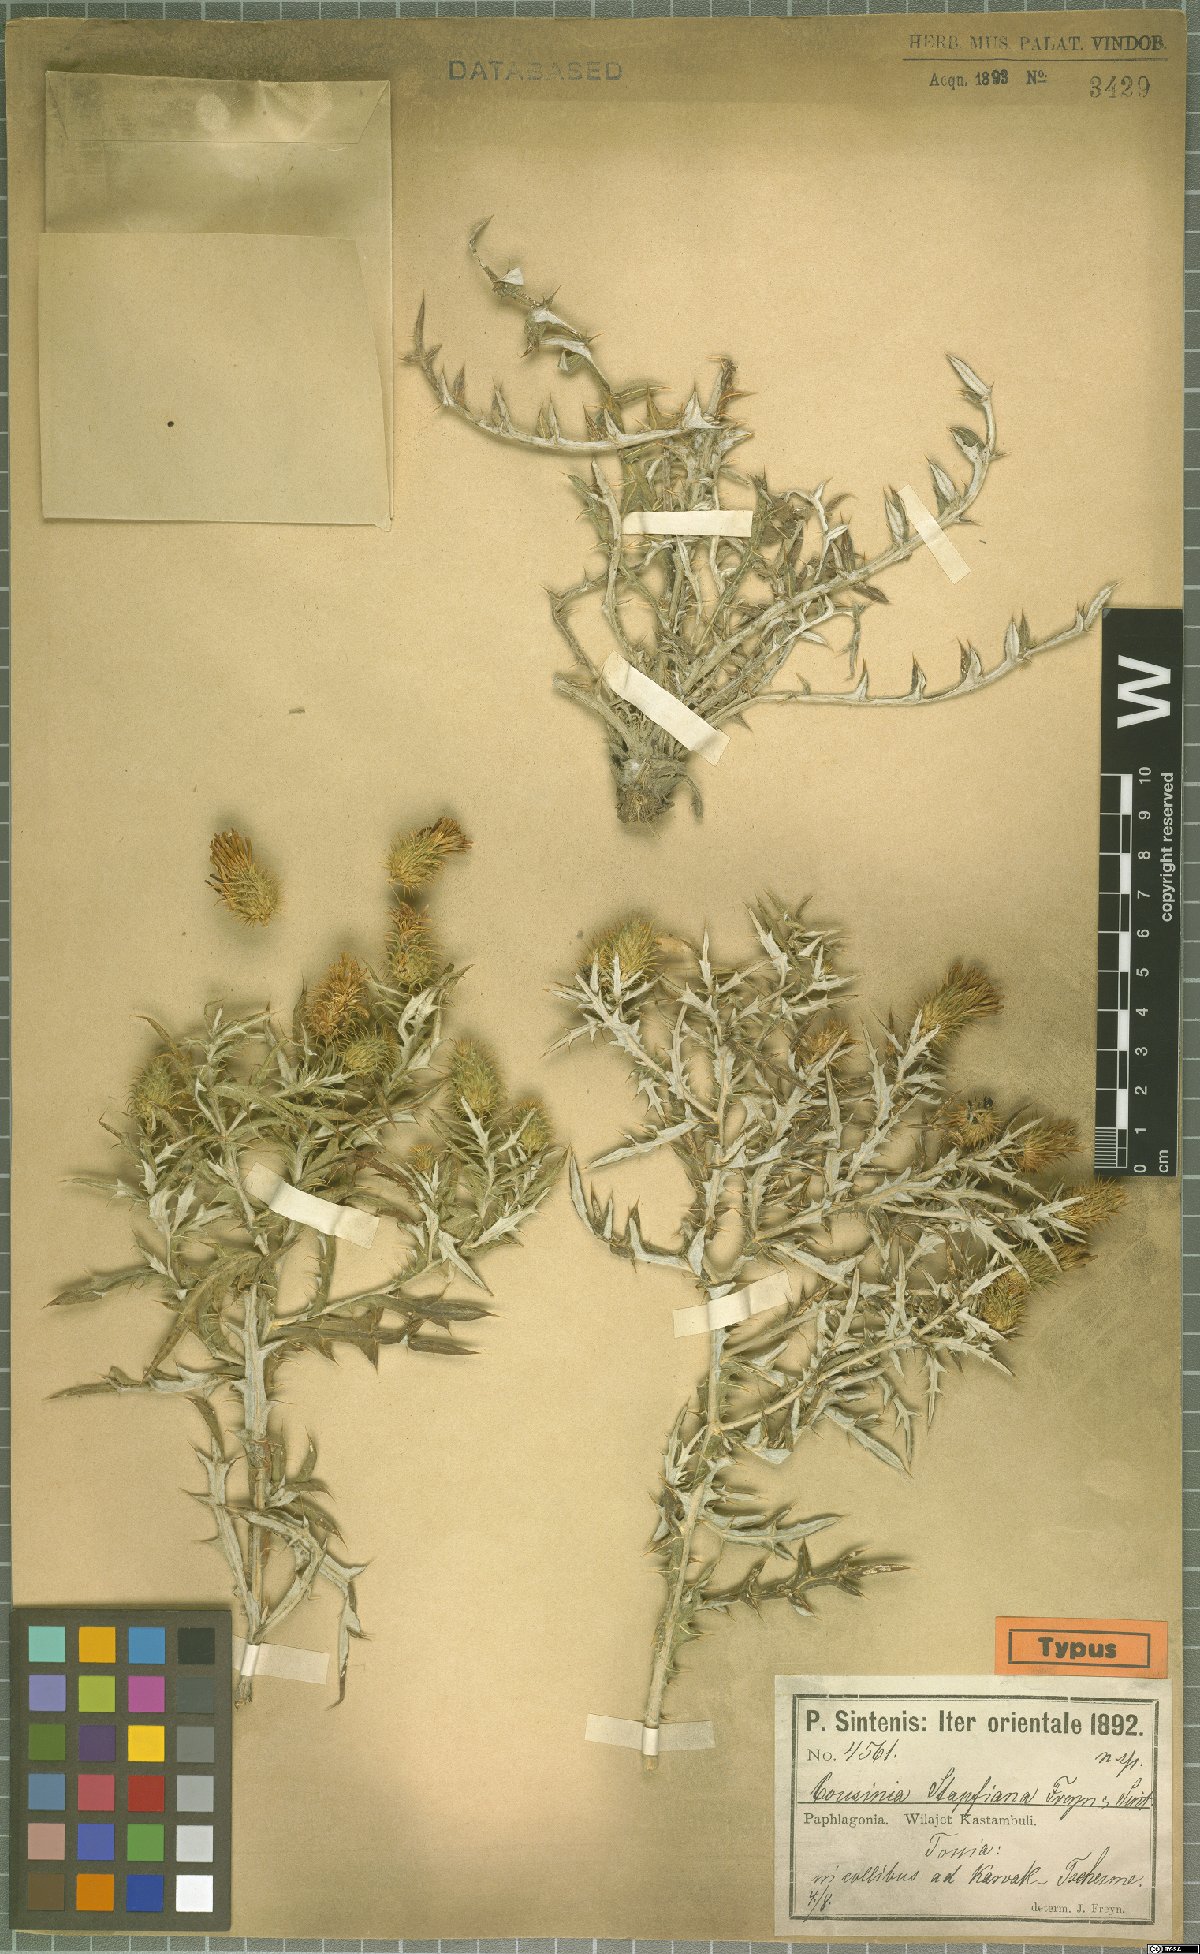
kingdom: Plantae
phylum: Tracheophyta
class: Magnoliopsida
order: Asterales
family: Asteraceae
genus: Cousinia
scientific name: Cousinia stapfiana
